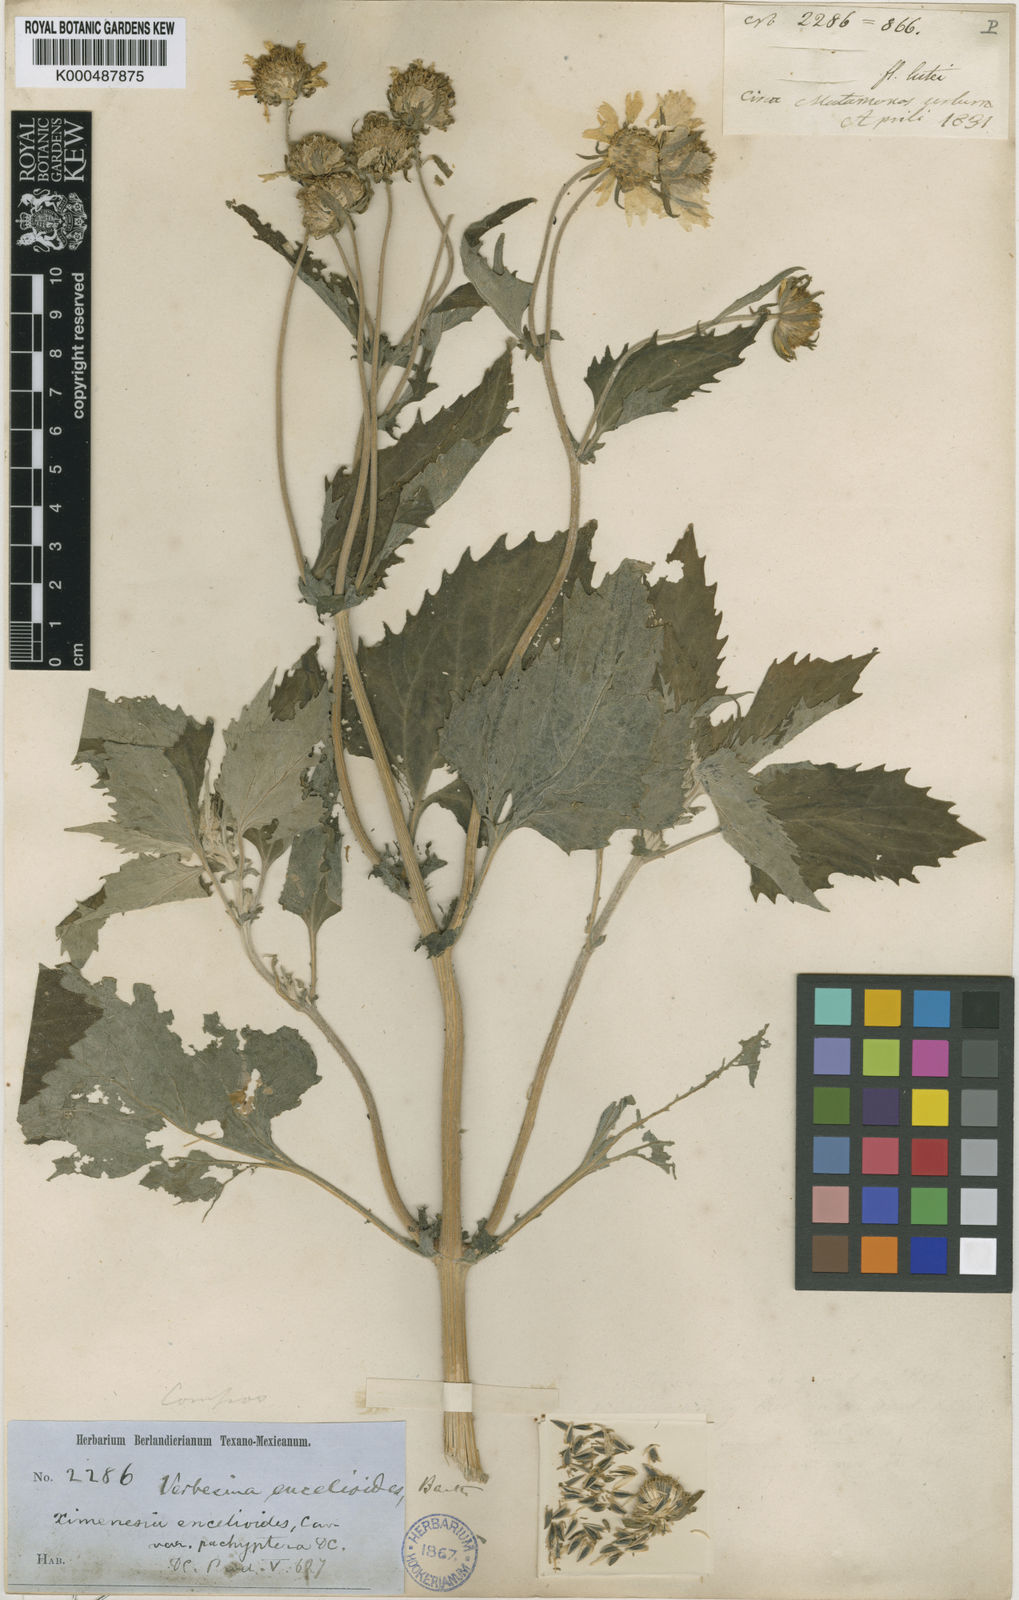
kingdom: Plantae
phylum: Tracheophyta
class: Magnoliopsida
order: Asterales
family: Asteraceae
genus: Verbesina
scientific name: Verbesina encelioides
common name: Golden crownbeard
